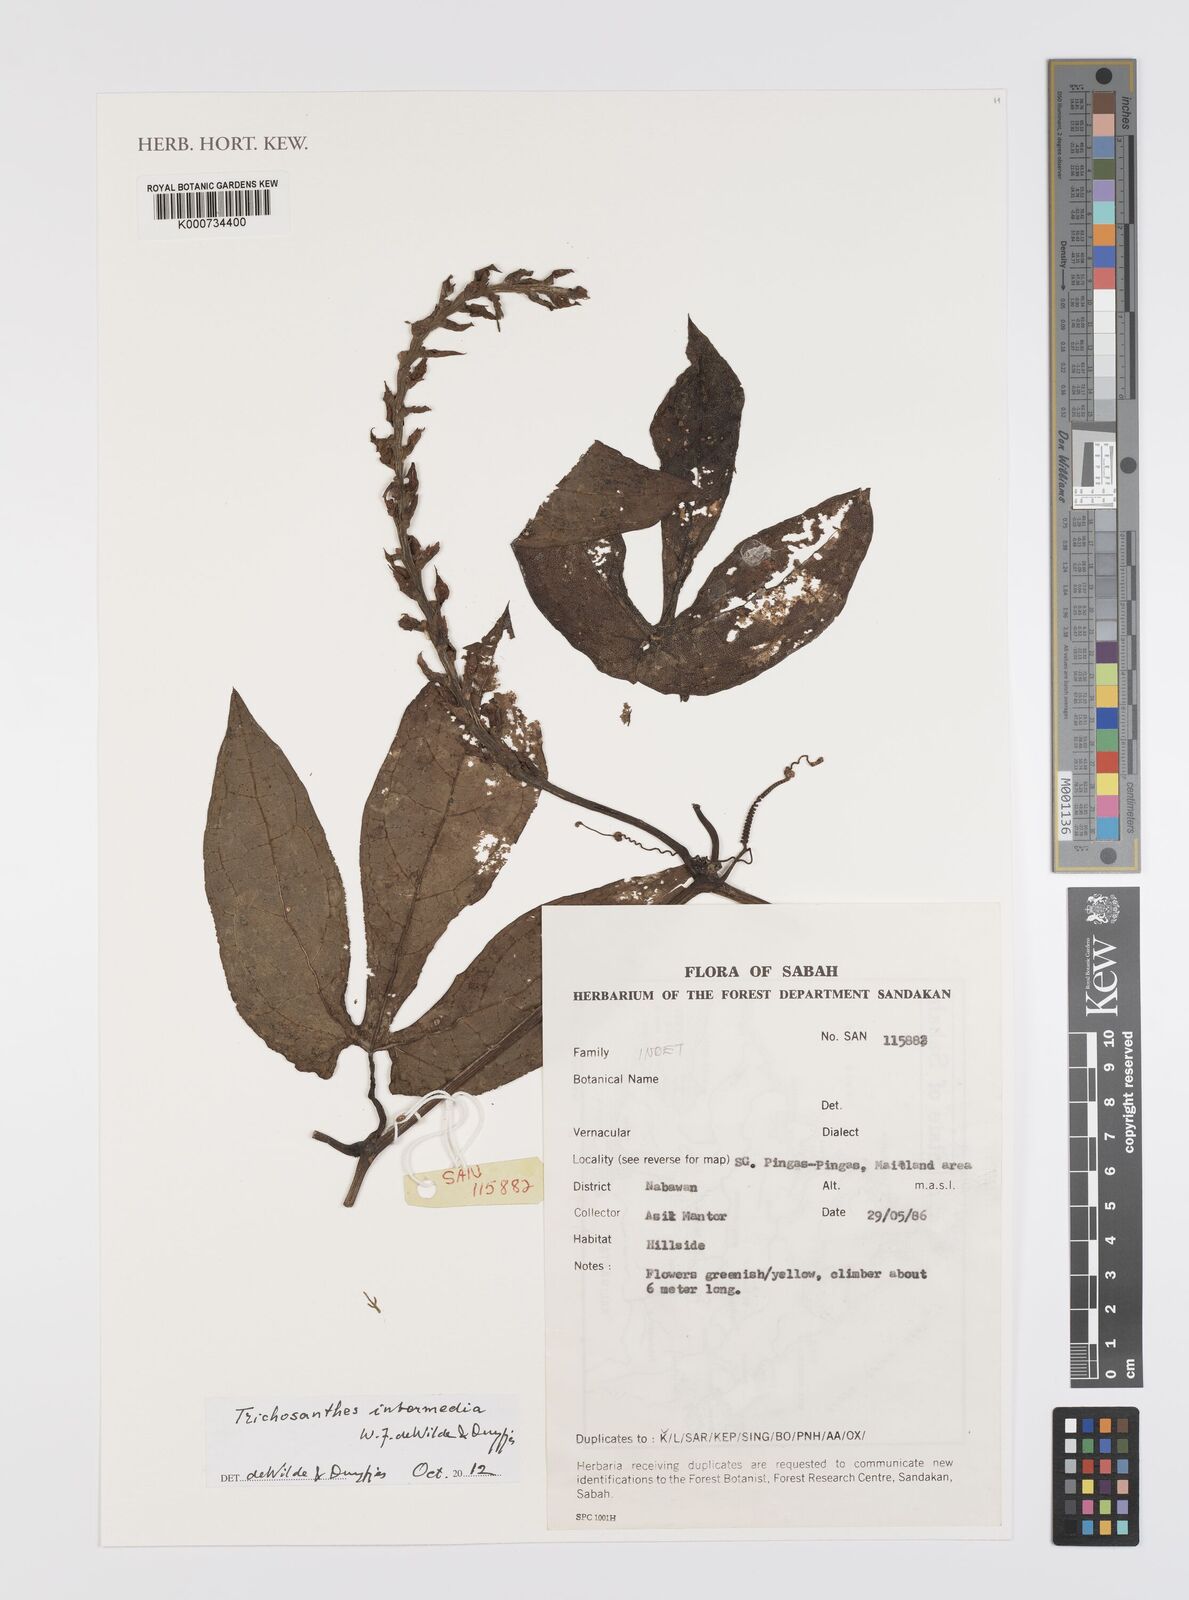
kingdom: Plantae
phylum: Tracheophyta
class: Magnoliopsida
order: Cucurbitales
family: Cucurbitaceae
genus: Trichosanthes
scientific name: Trichosanthes intermedia
